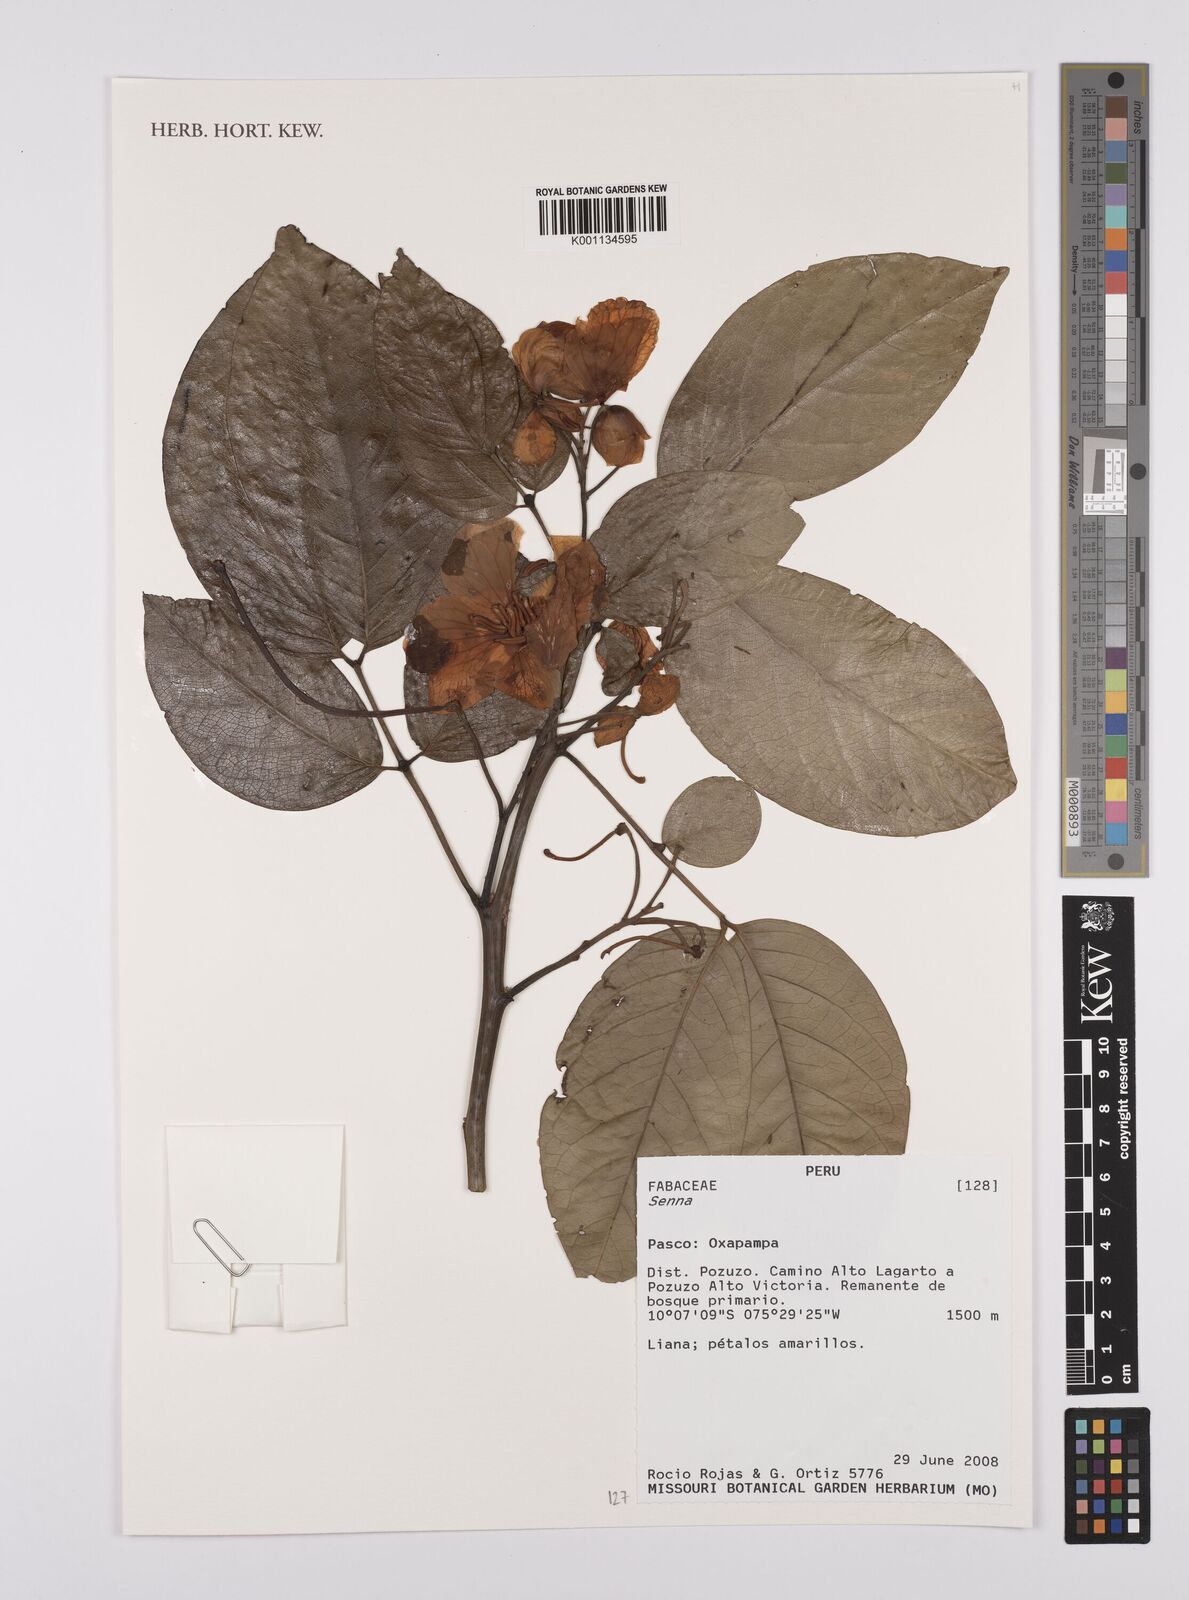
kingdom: Plantae
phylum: Tracheophyta
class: Magnoliopsida
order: Fabales
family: Fabaceae
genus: Senna
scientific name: Senna
